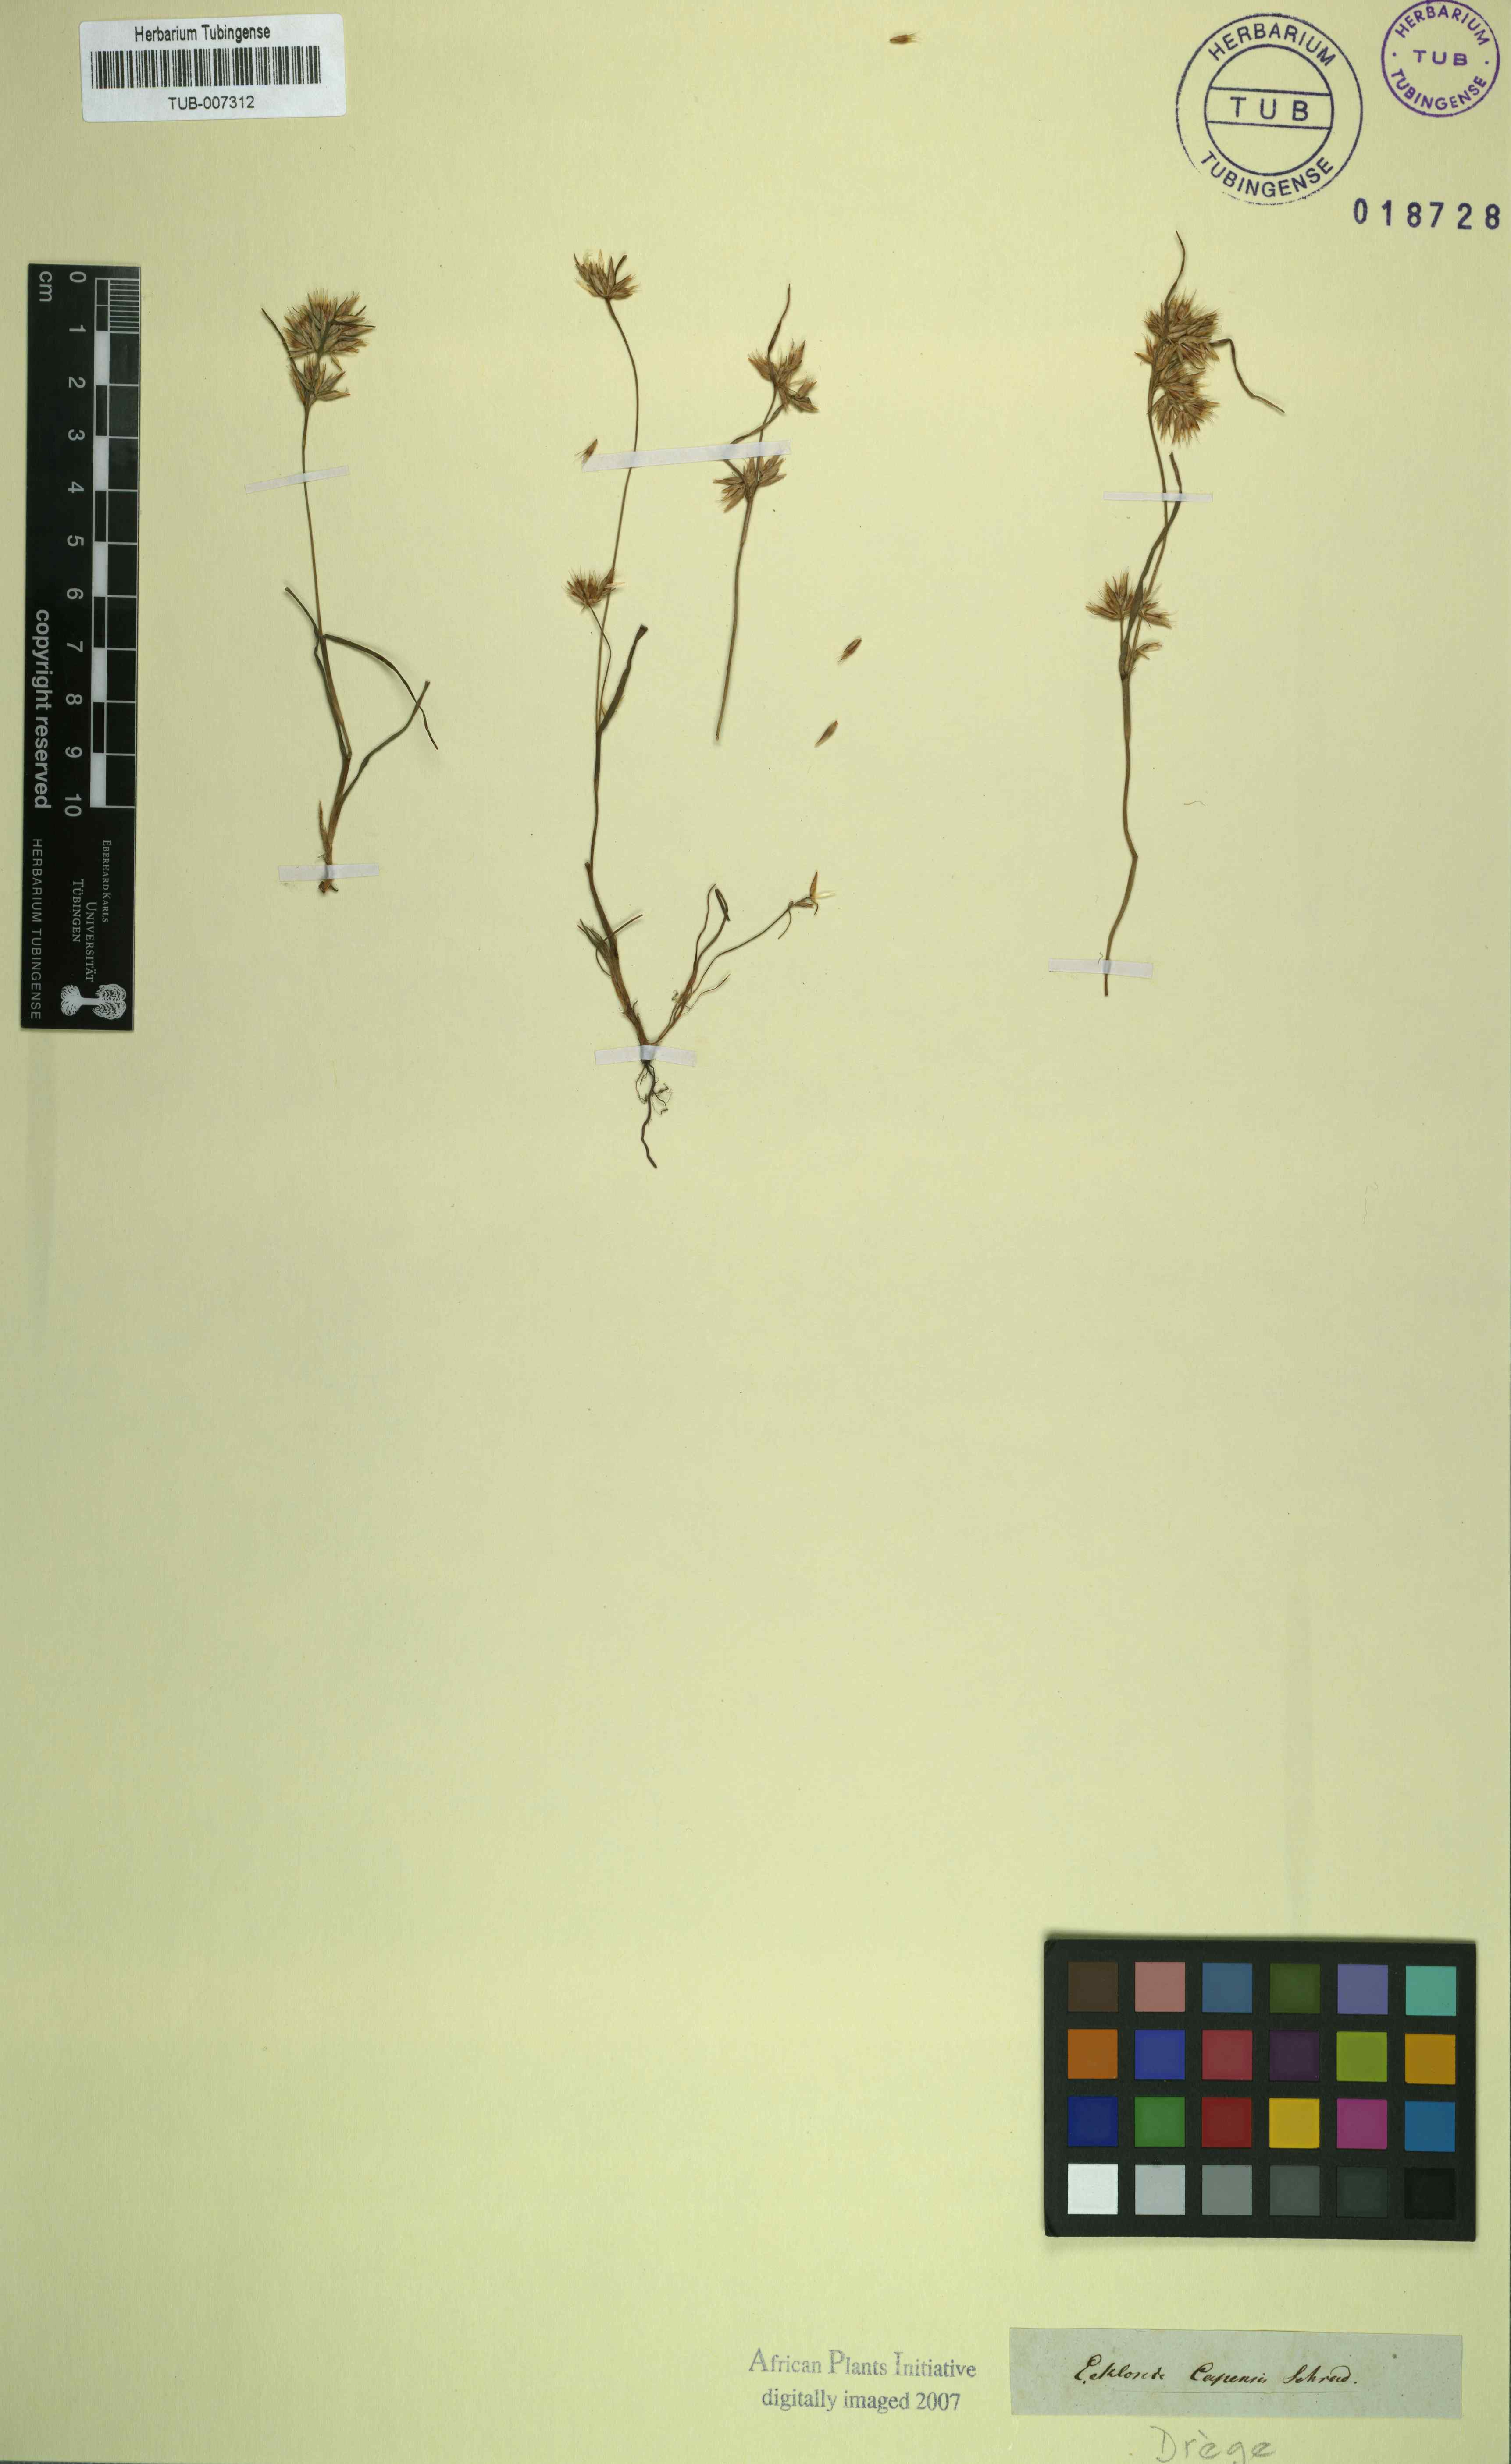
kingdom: Plantae
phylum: Tracheophyta
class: Liliopsida
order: Poales
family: Cyperaceae
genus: Trianoptiles
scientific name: Trianoptiles capensis
